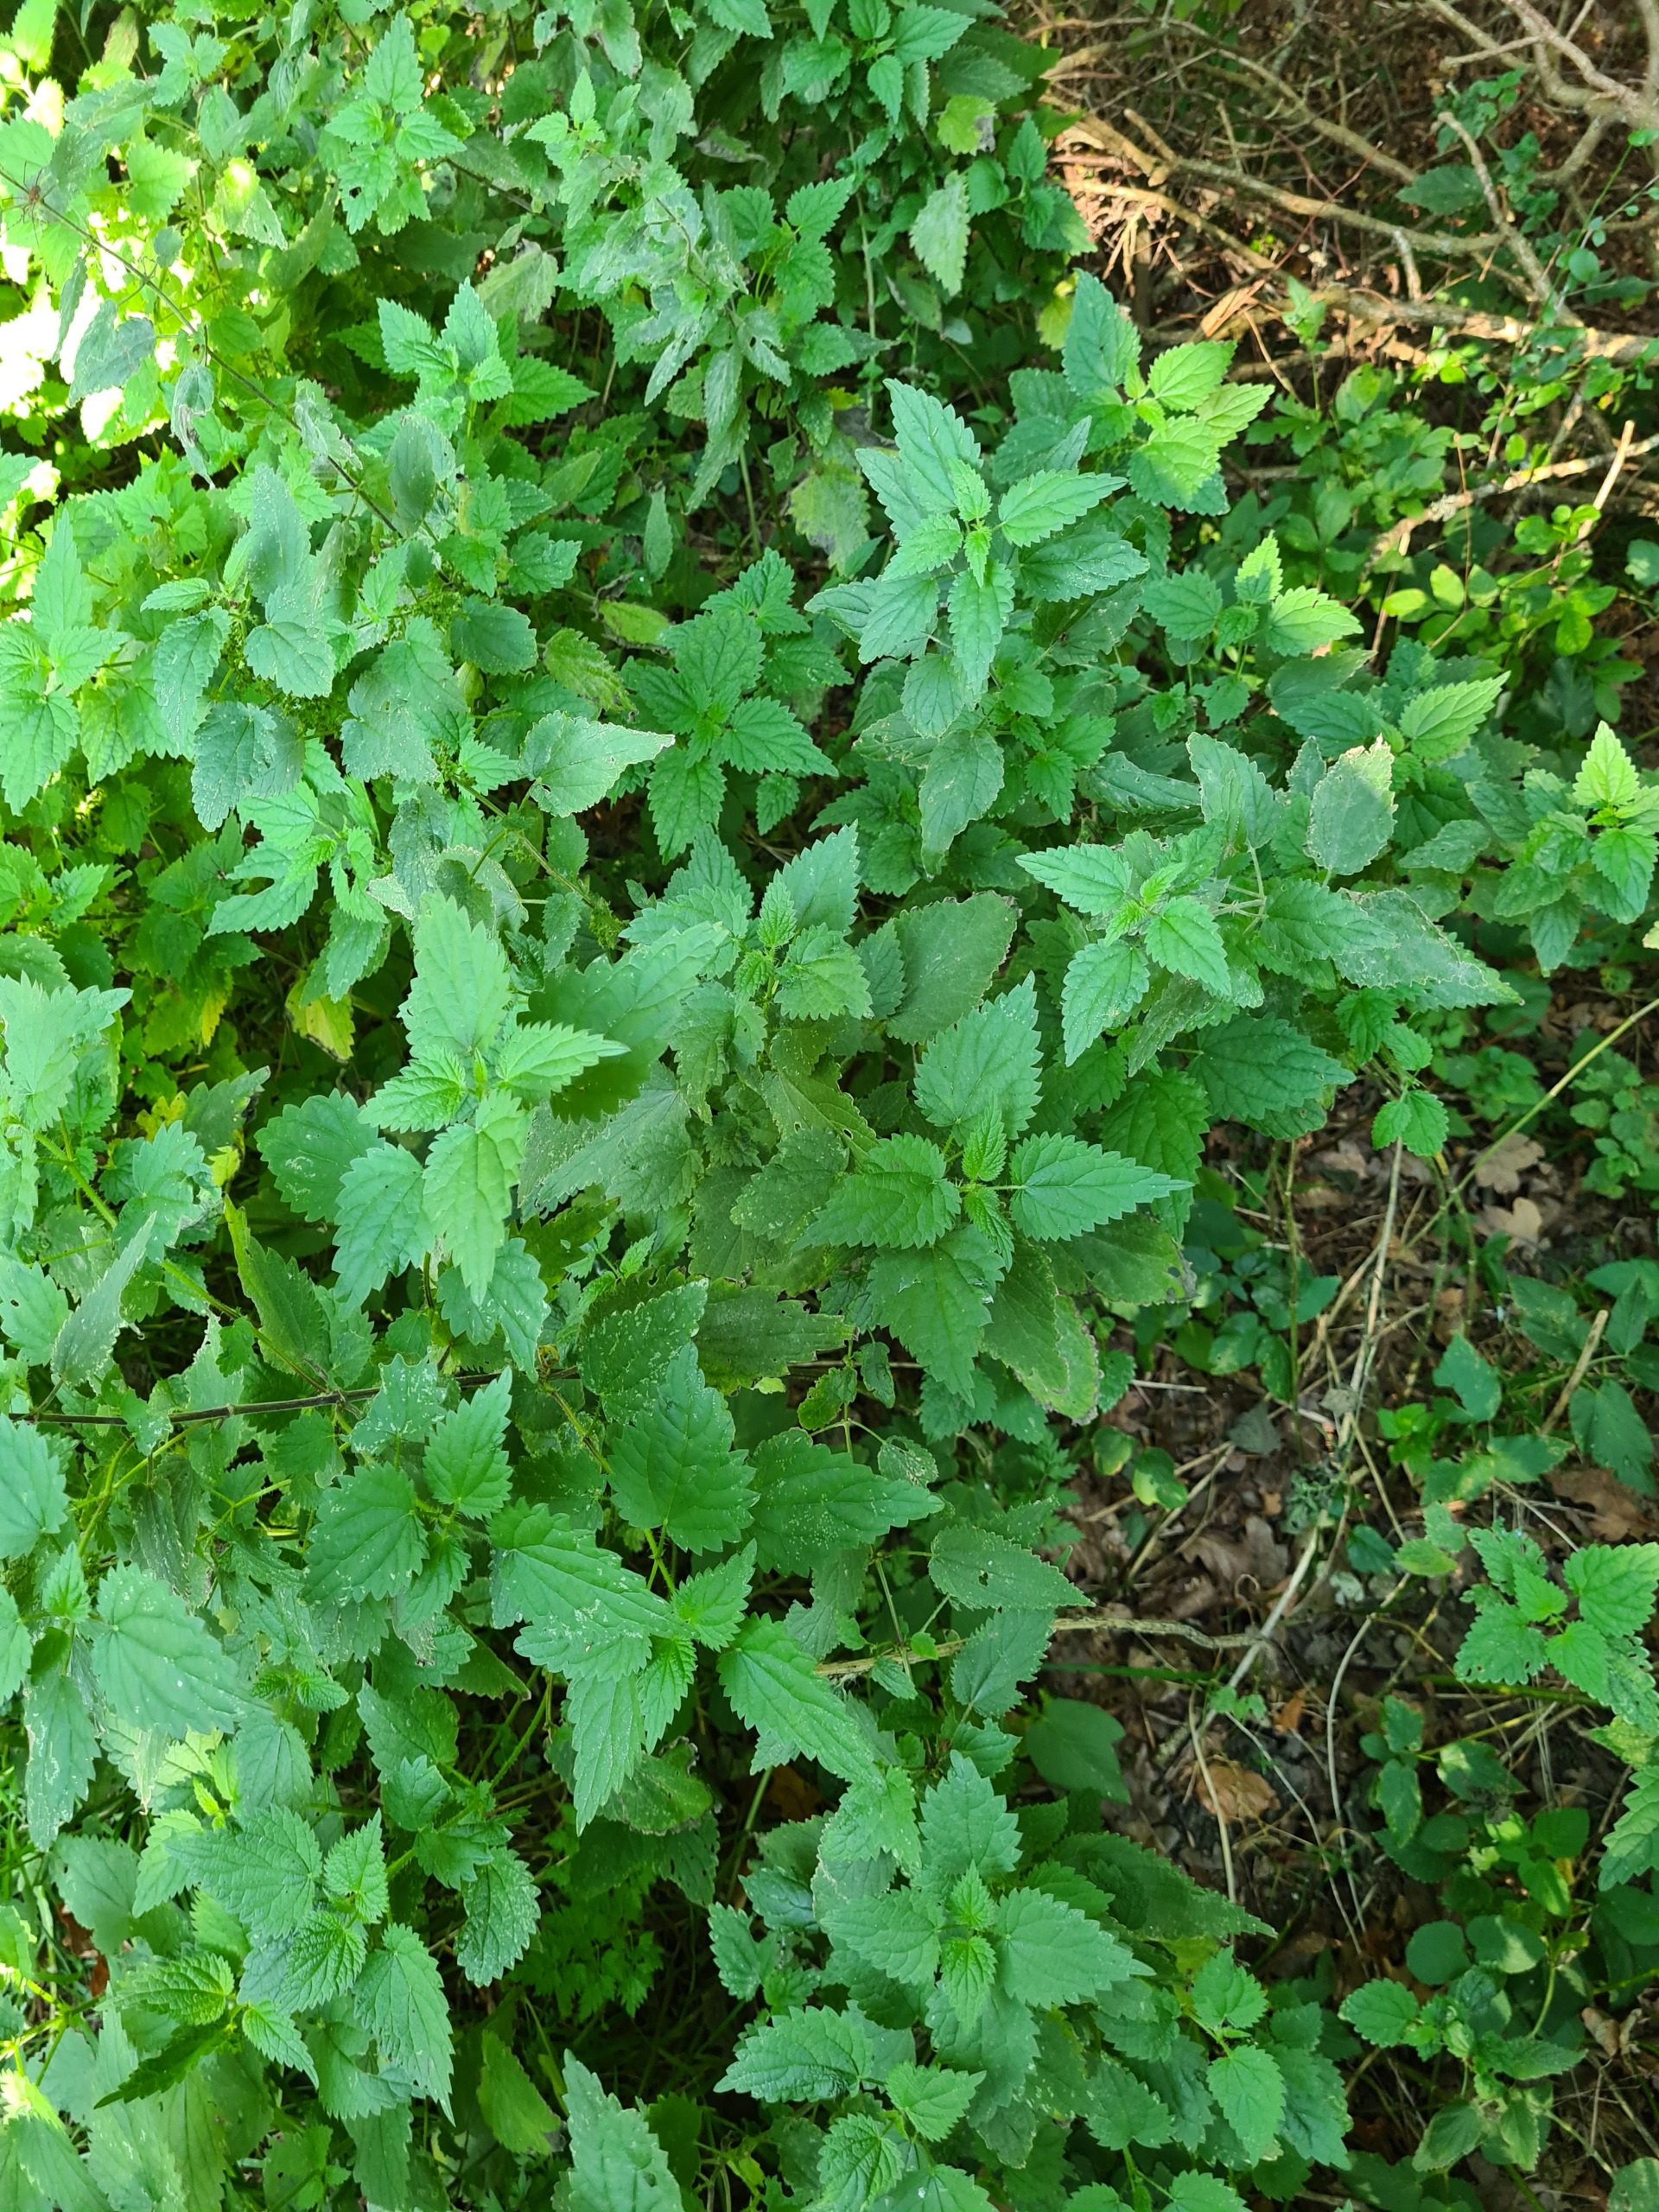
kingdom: Plantae
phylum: Tracheophyta
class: Magnoliopsida
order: Rosales
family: Urticaceae
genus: Urtica
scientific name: Urtica dioica
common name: Stor nælde
